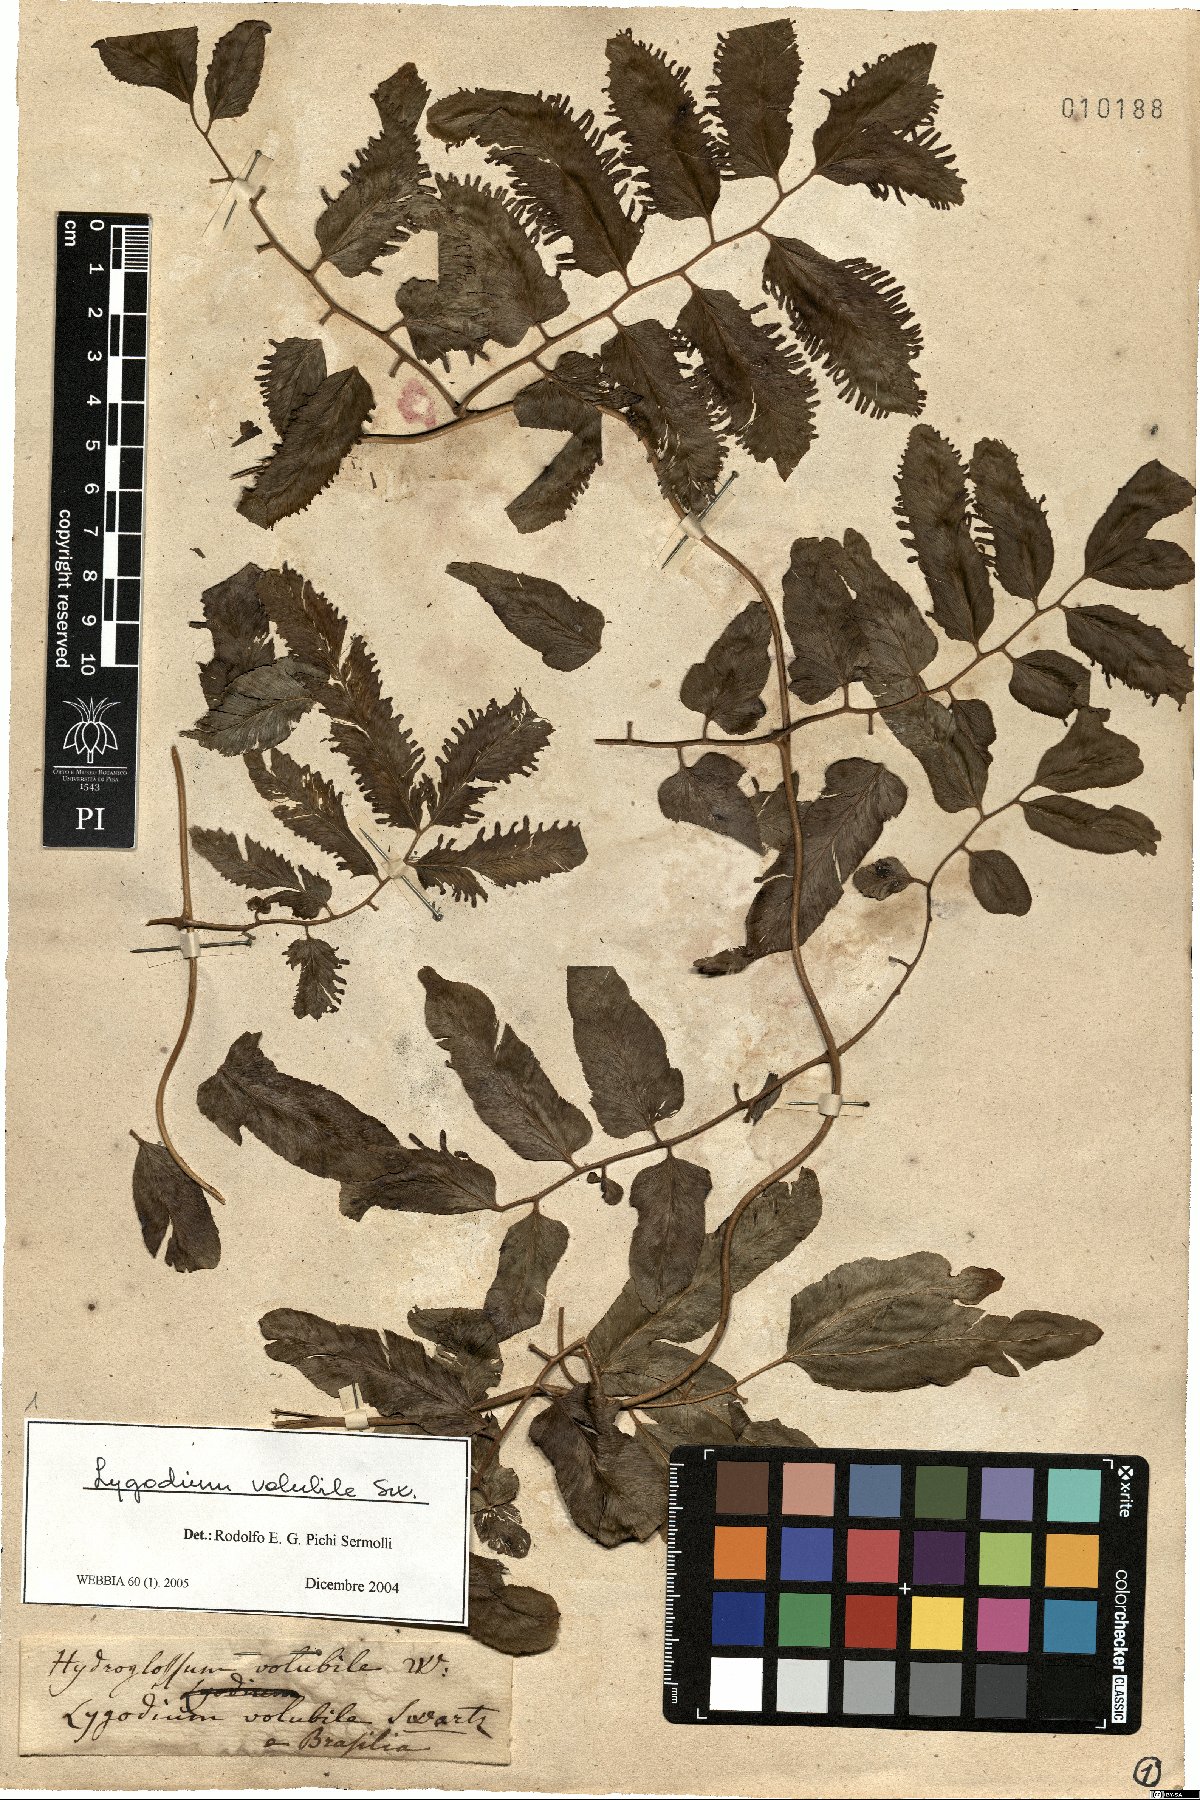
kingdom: Plantae
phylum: Tracheophyta
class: Polypodiopsida
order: Schizaeales
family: Lygodiaceae
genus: Lygodium
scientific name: Lygodium volubile
